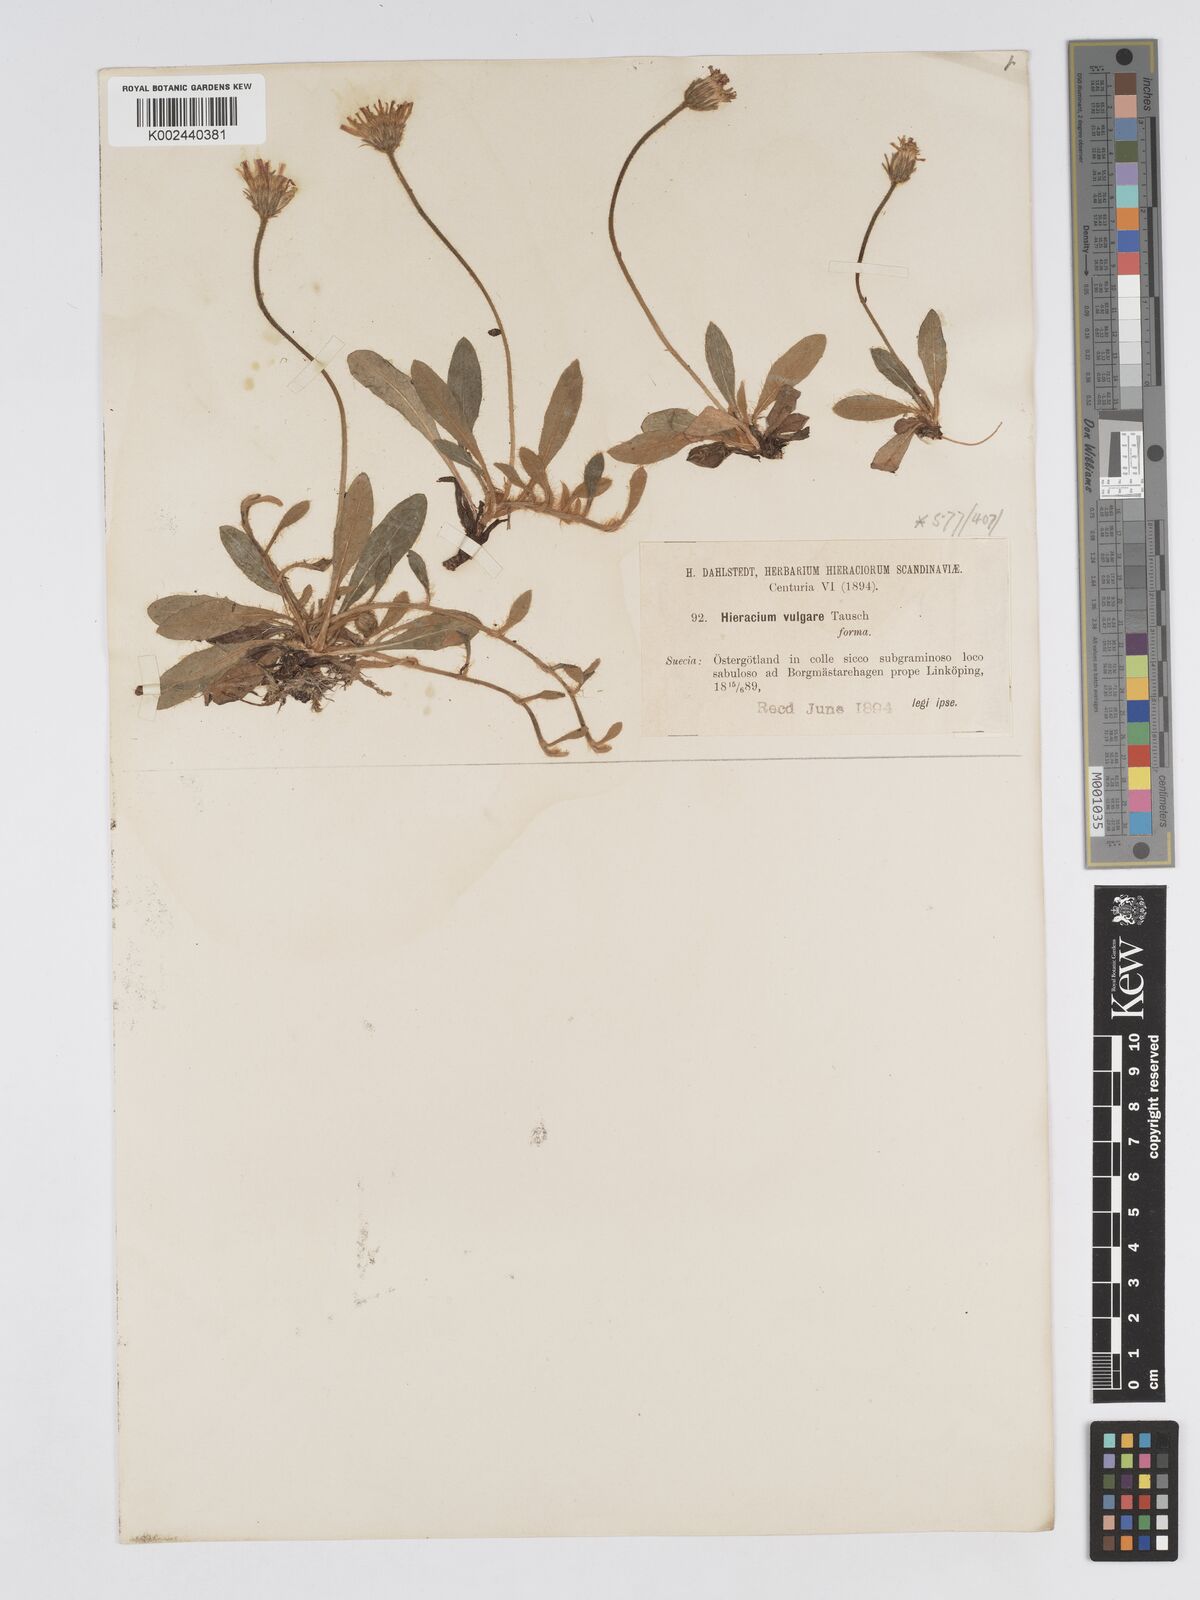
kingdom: Plantae
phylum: Tracheophyta
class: Magnoliopsida
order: Asterales
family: Asteraceae
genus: Pilosella
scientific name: Pilosella officinarum
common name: Mouse-ear hawkweed
